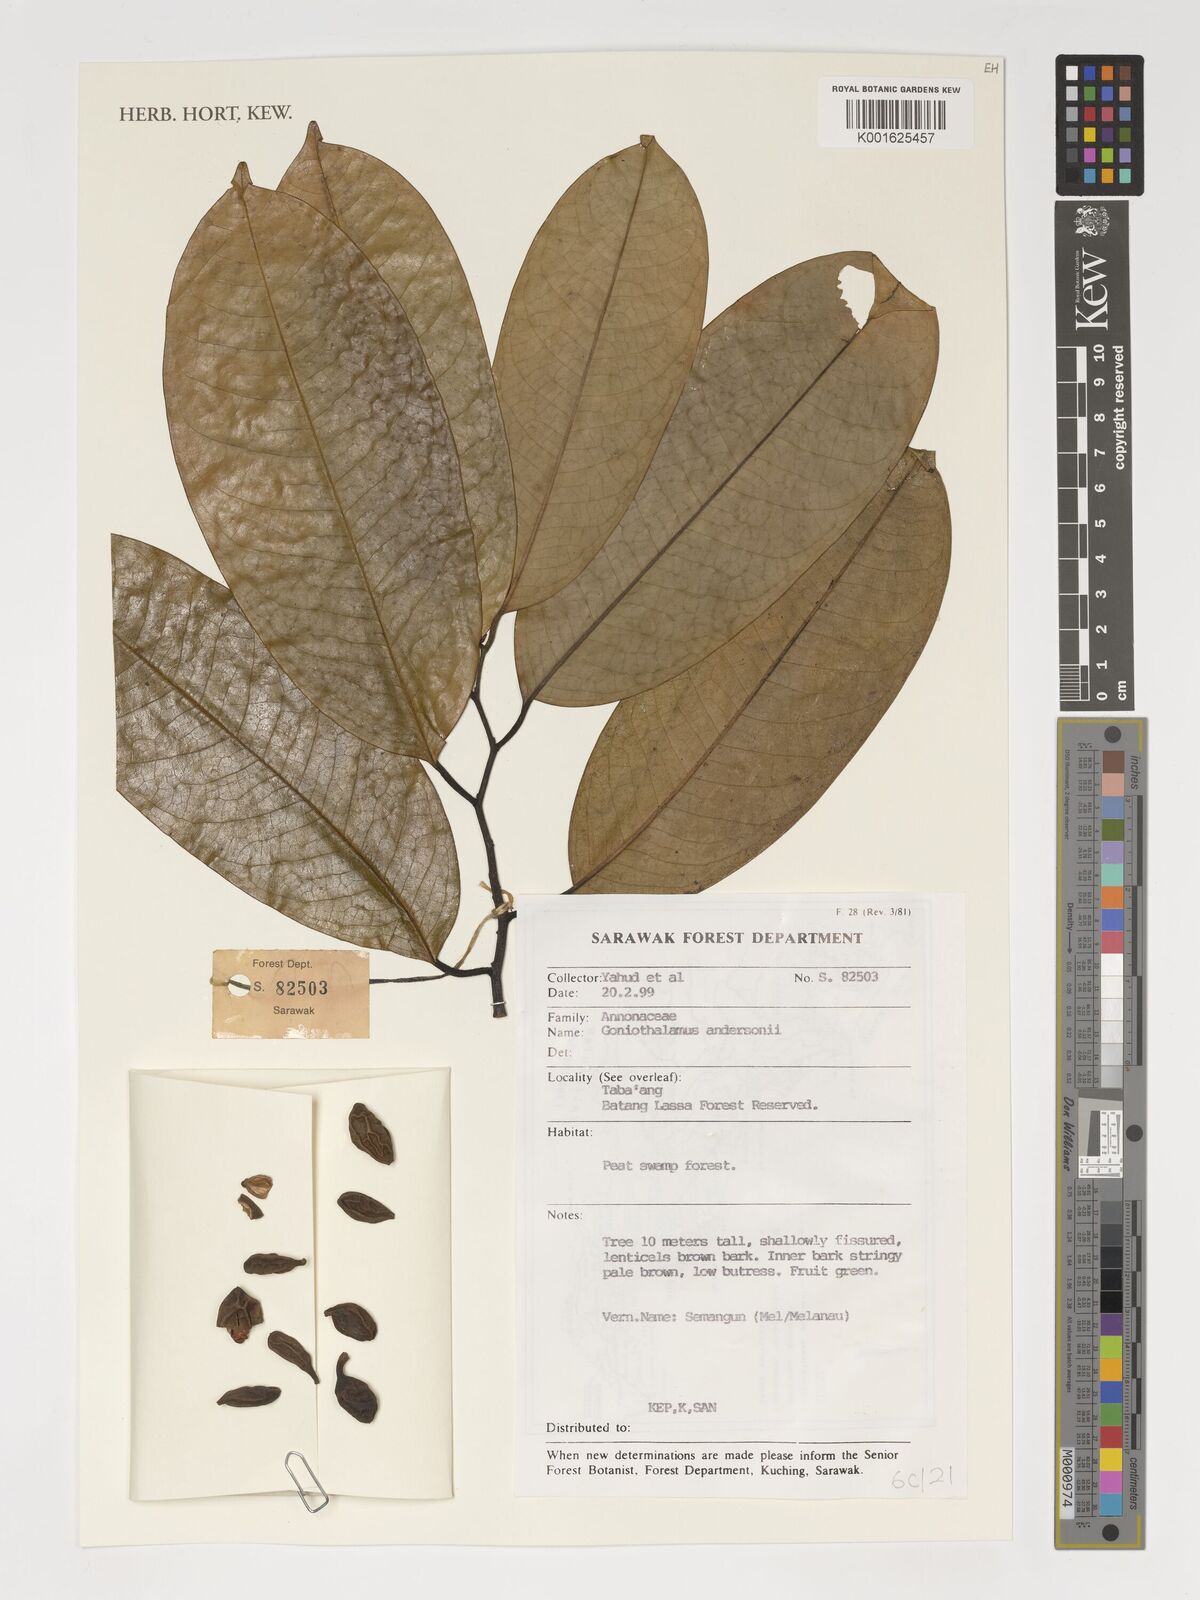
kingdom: Plantae
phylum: Tracheophyta
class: Magnoliopsida
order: Magnoliales
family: Annonaceae
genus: Goniothalamus
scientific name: Goniothalamus andersonii
